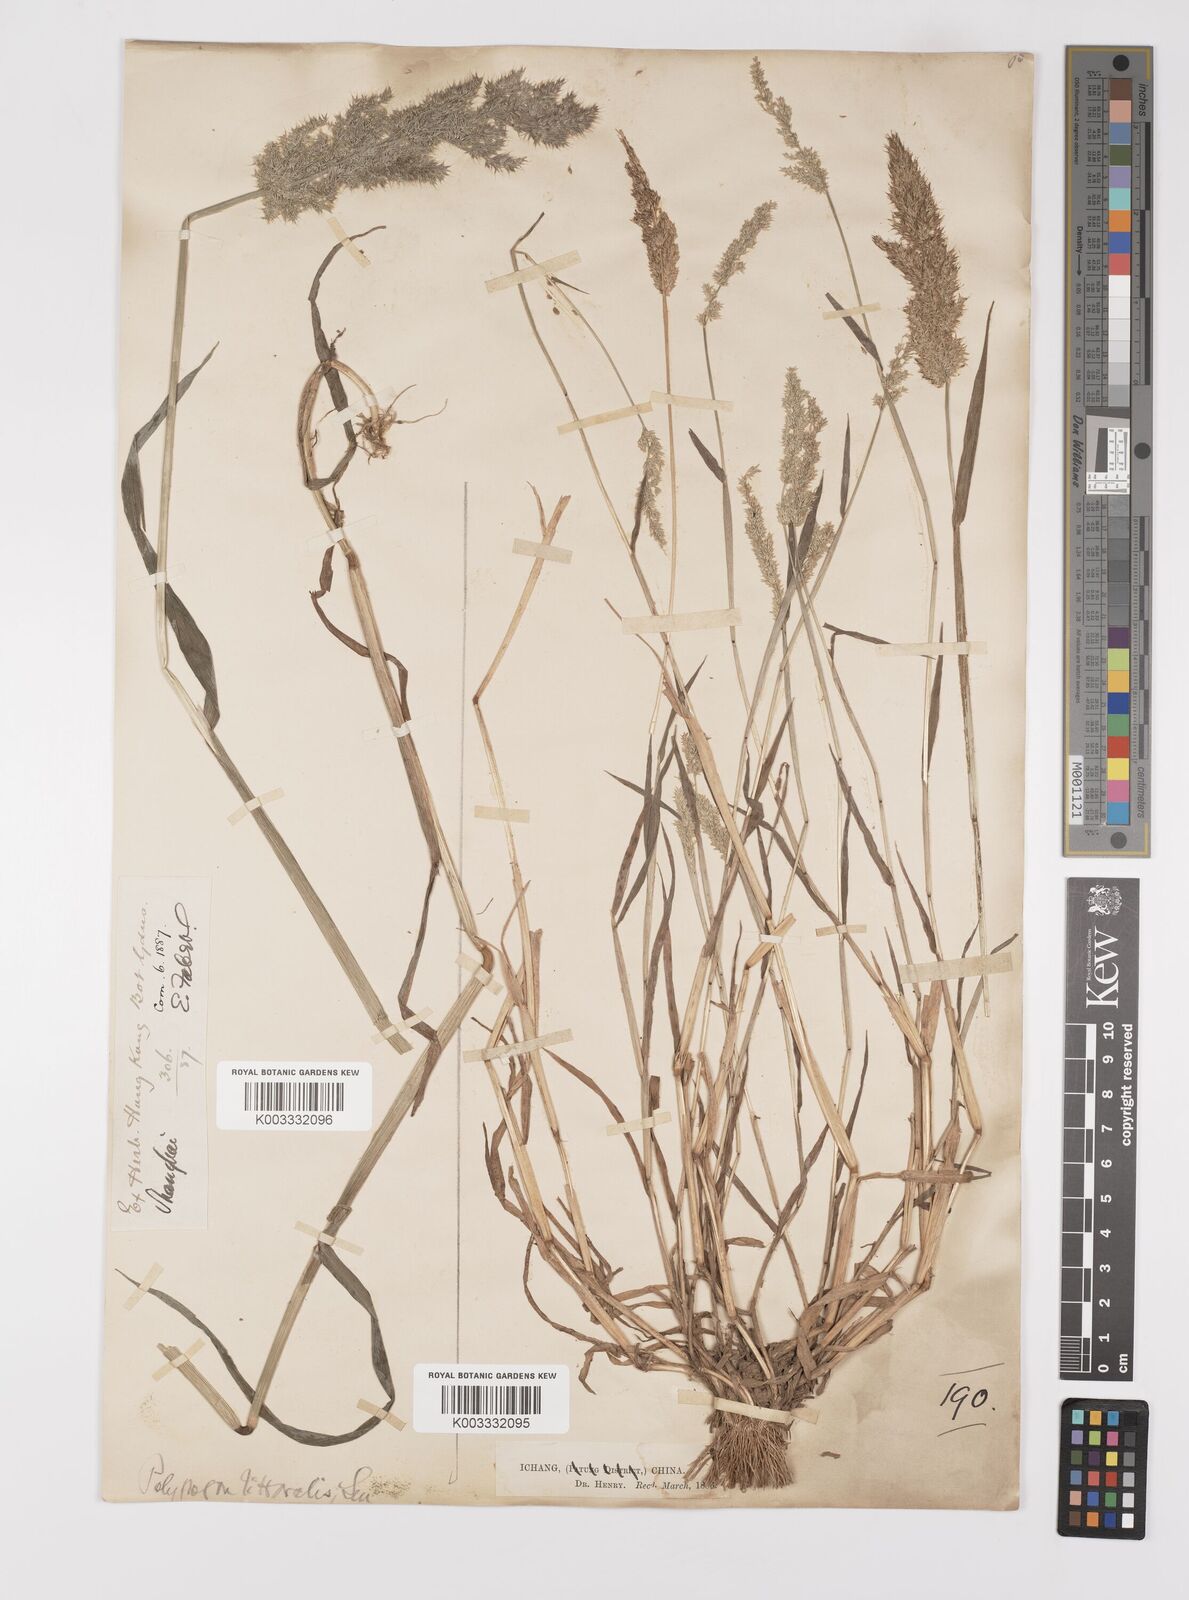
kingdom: Plantae
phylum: Tracheophyta
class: Liliopsida
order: Poales
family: Poaceae
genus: Polypogon
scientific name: Polypogon fugax
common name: Asia minor bluegrass
